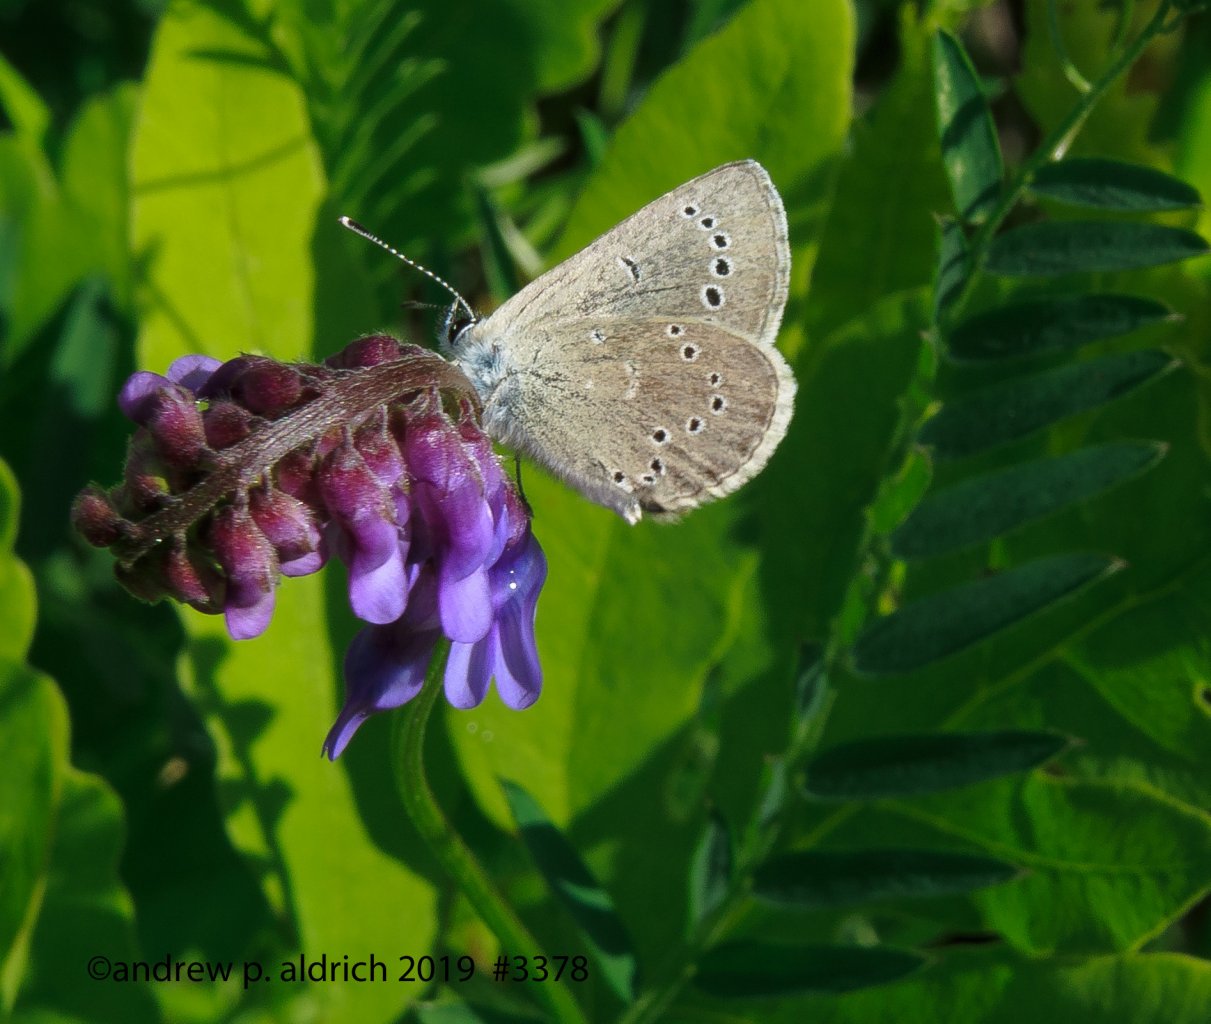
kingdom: Animalia
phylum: Arthropoda
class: Insecta
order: Lepidoptera
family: Lycaenidae
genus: Glaucopsyche
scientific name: Glaucopsyche lygdamus
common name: Silvery Blue
